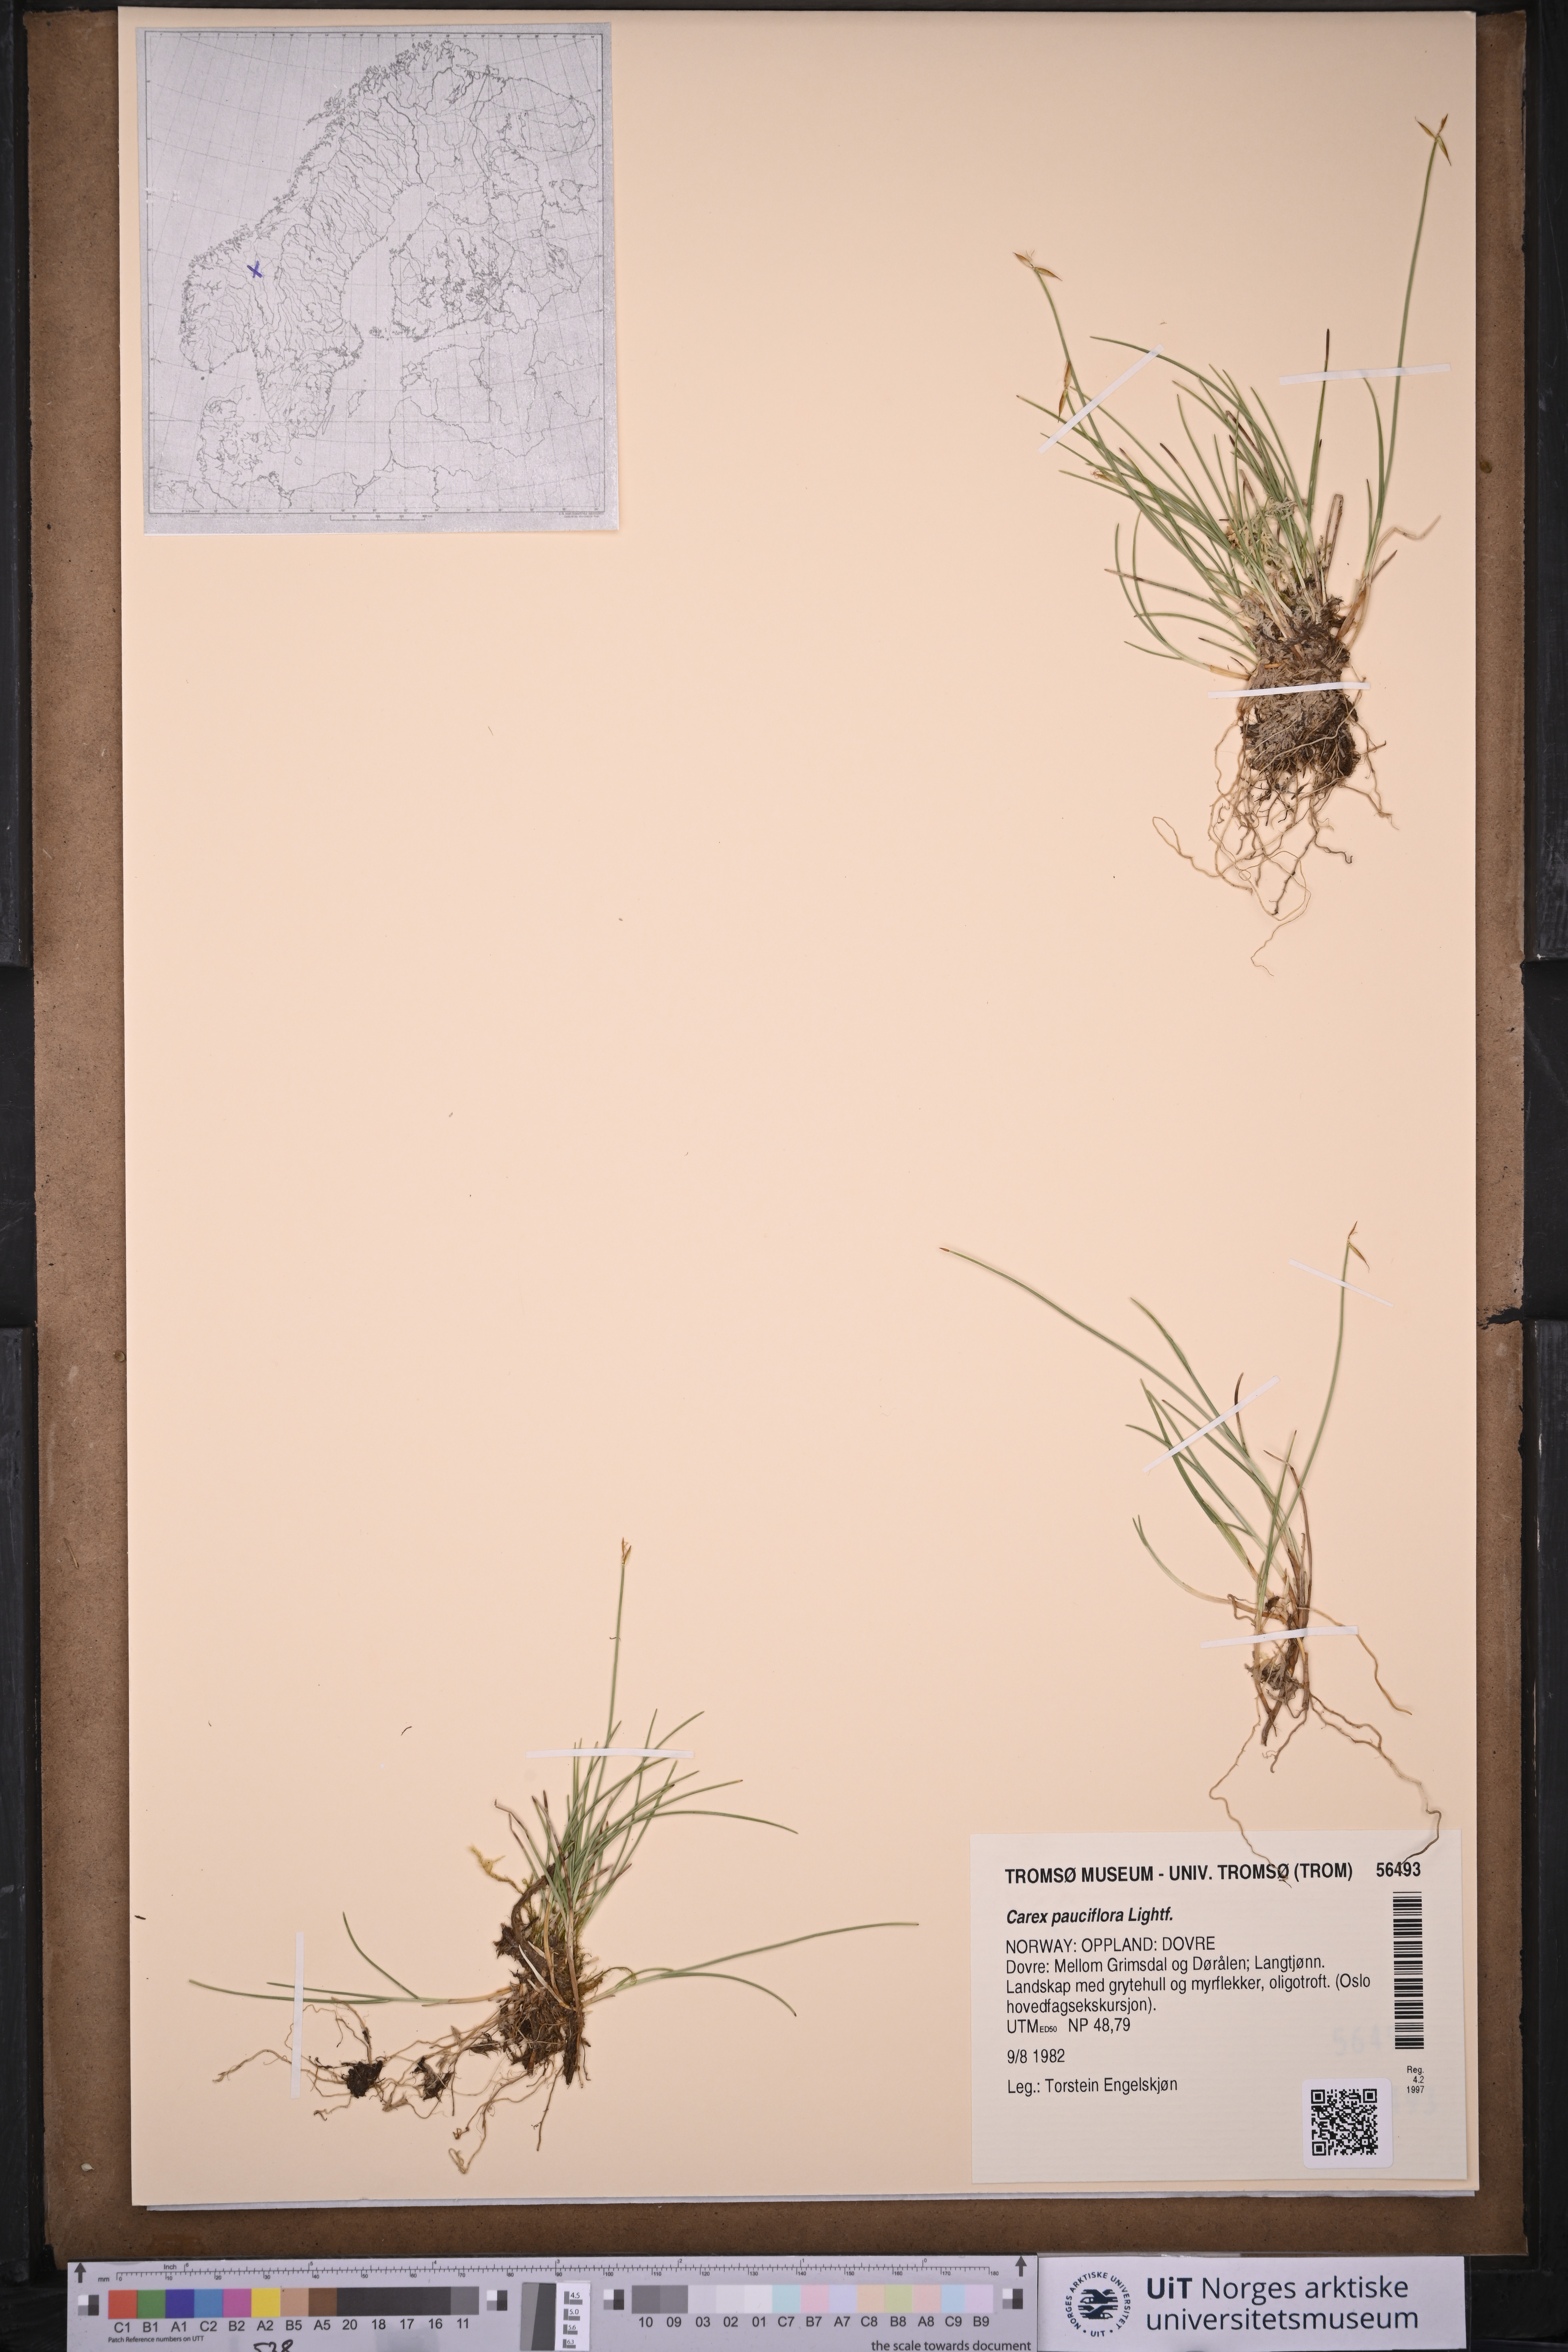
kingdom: Plantae
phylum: Tracheophyta
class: Liliopsida
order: Poales
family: Cyperaceae
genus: Carex
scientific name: Carex pauciflora
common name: Few-flowered sedge
